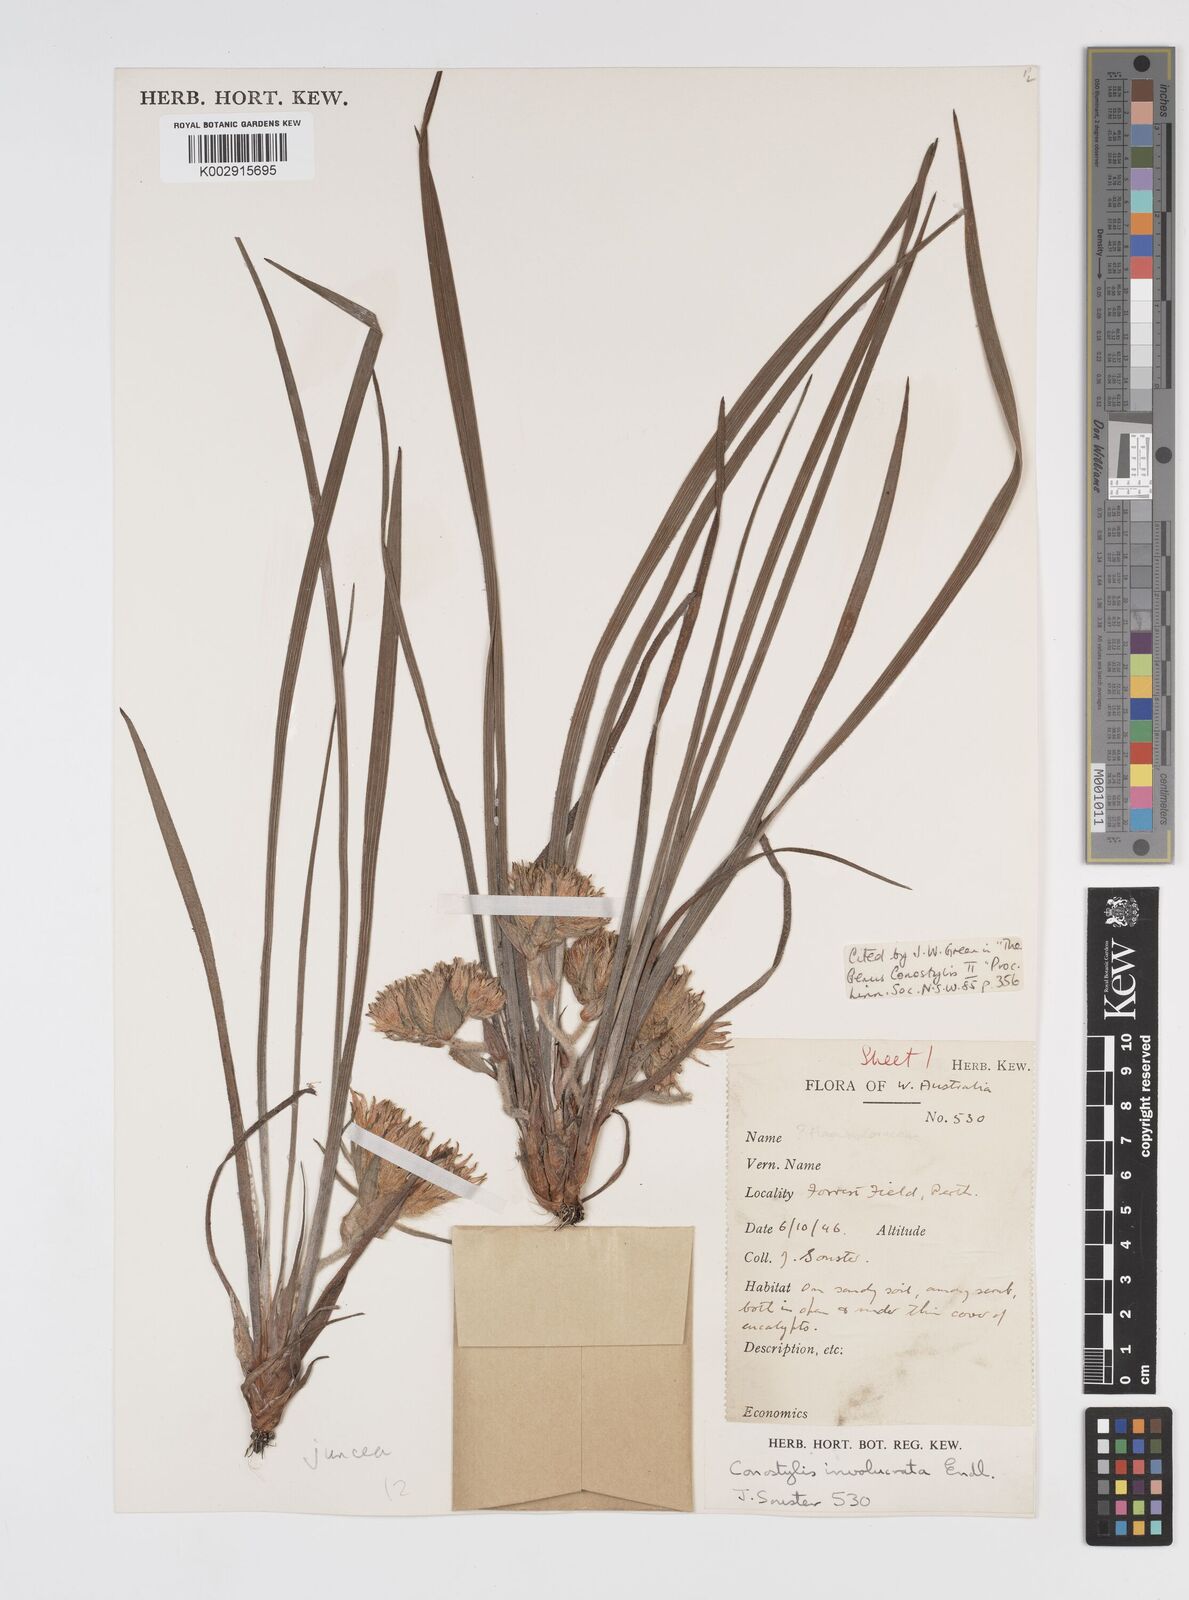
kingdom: Plantae
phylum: Tracheophyta
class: Liliopsida
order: Commelinales
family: Haemodoraceae
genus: Conostylis
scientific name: Conostylis juncea
